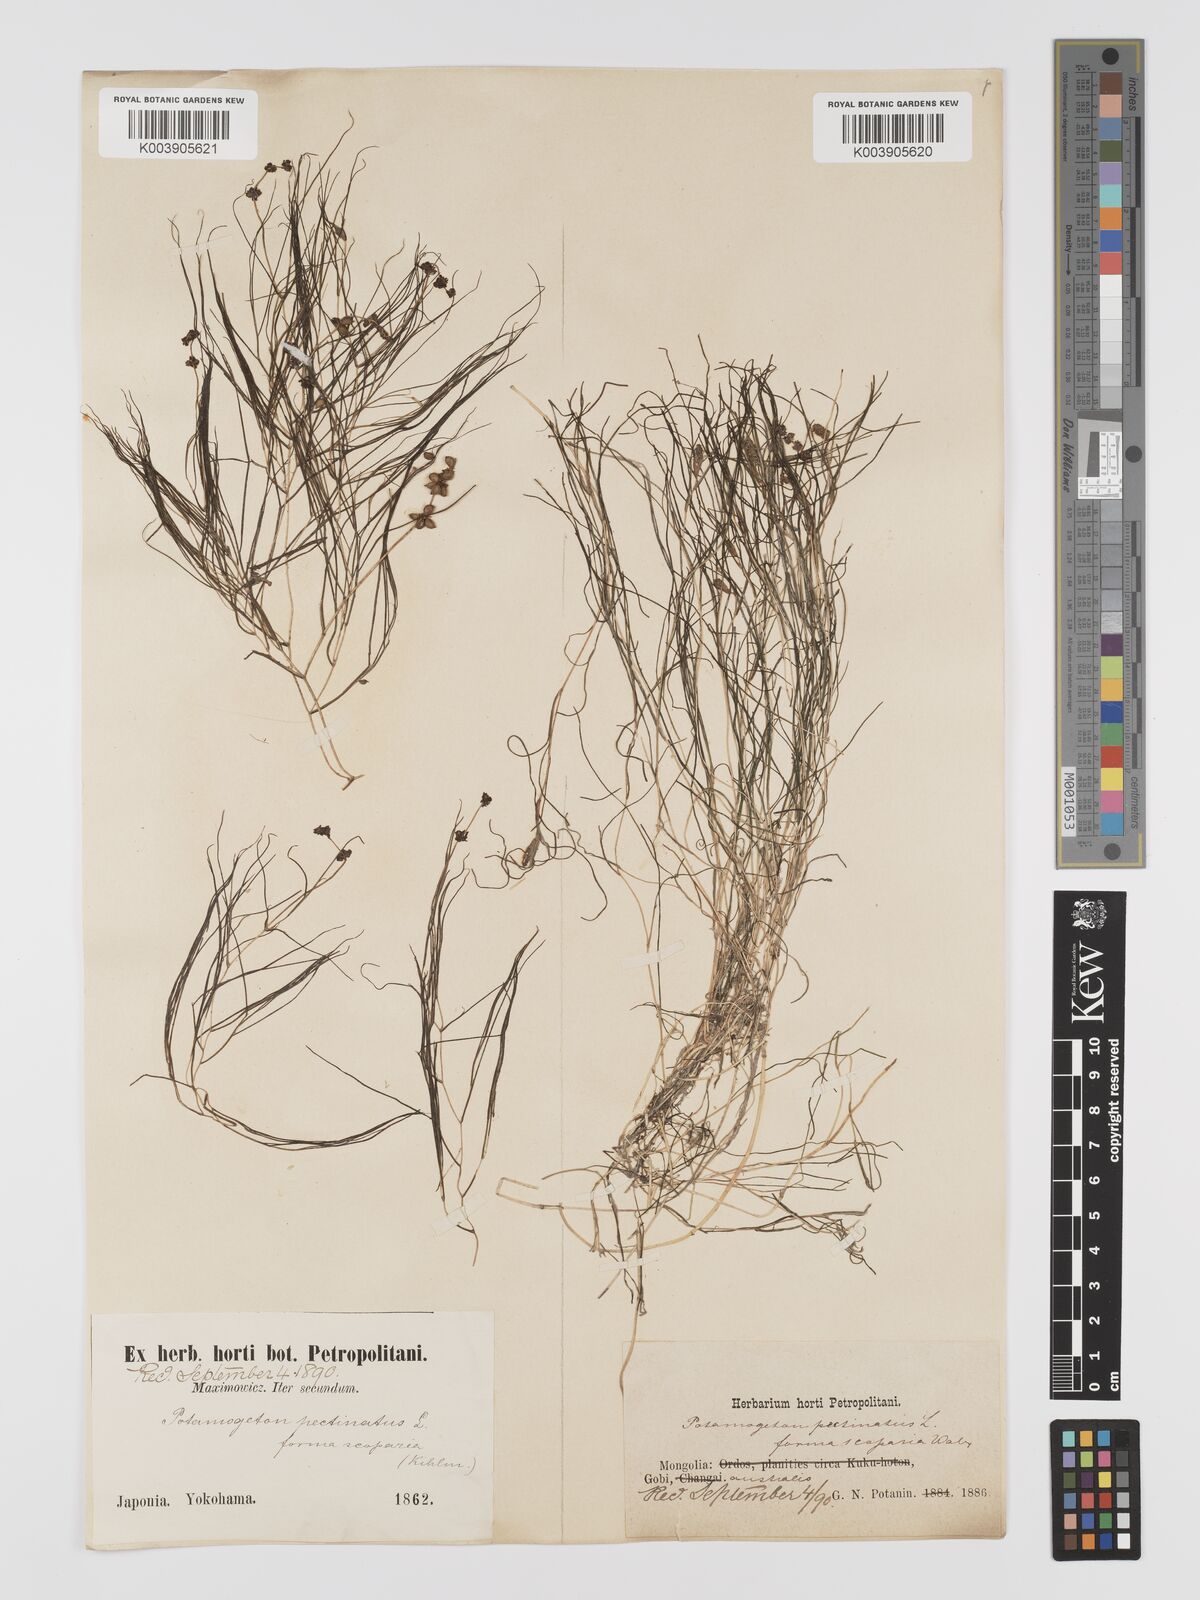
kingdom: Plantae
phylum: Tracheophyta
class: Liliopsida
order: Alismatales
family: Potamogetonaceae
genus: Stuckenia
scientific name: Stuckenia pectinata
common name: Sago pondweed
